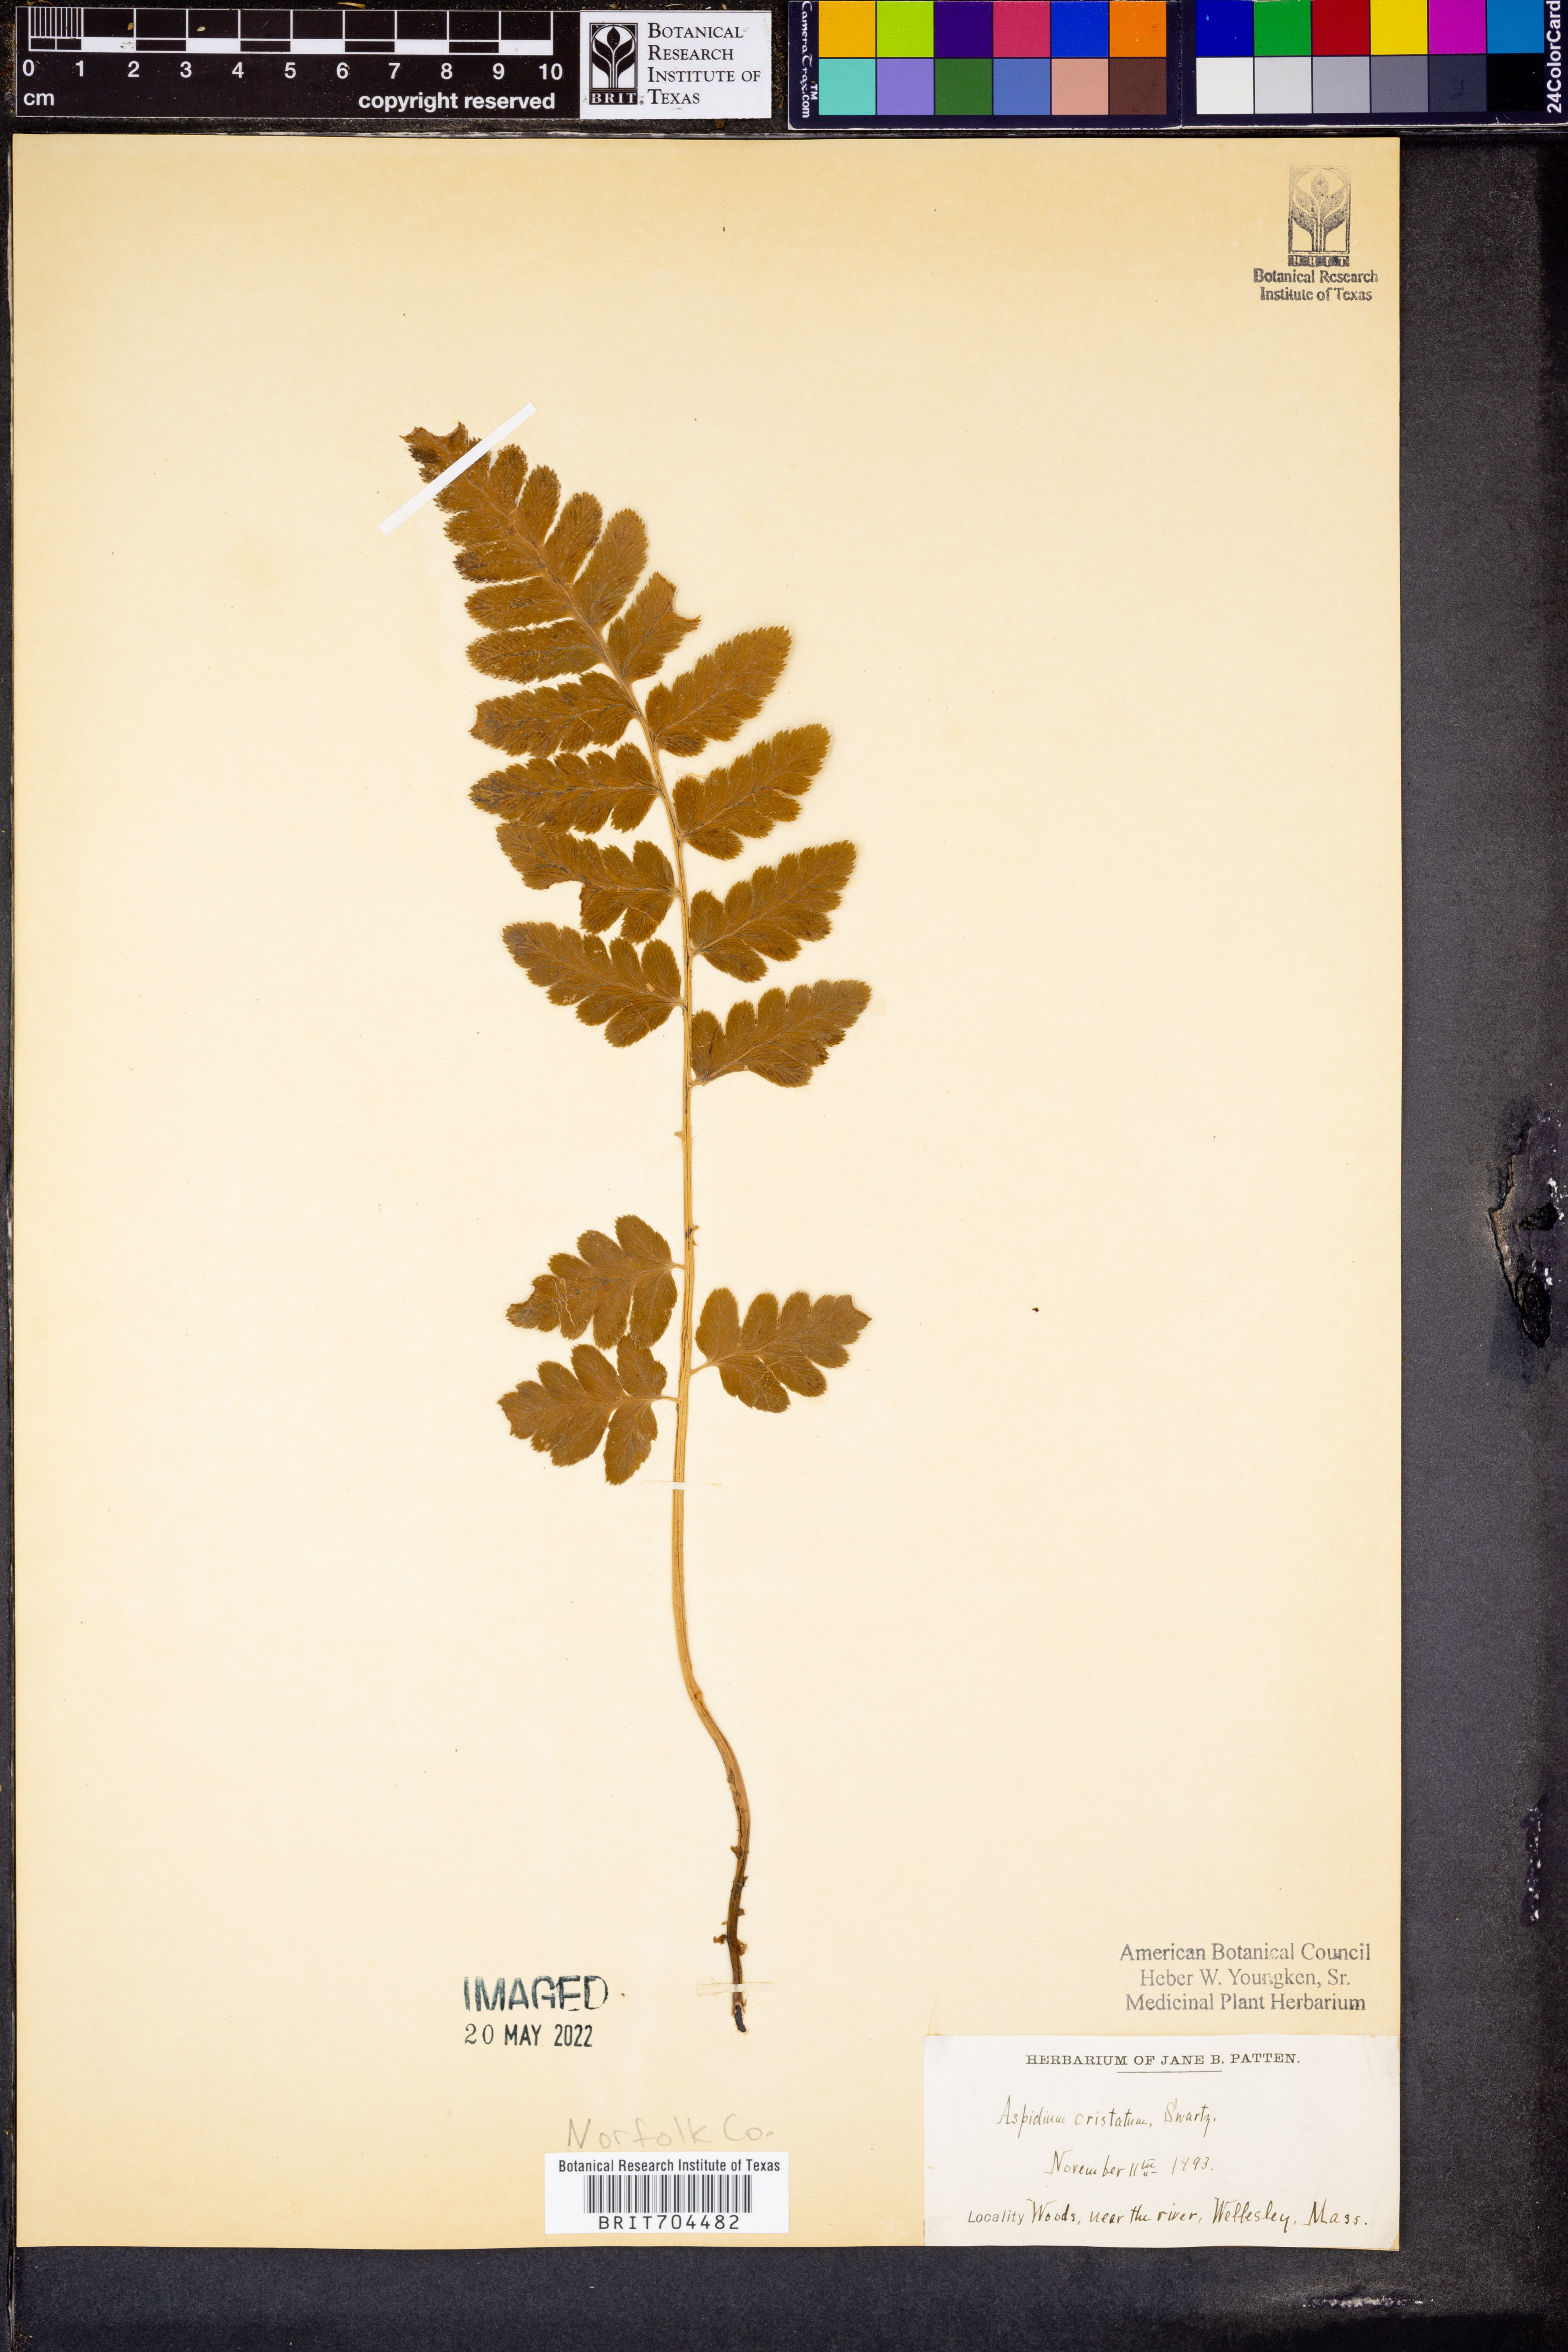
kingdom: Plantae
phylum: Tracheophyta
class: Polypodiopsida
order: Polypodiales
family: Dryopteridaceae
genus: Dryopteris
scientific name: Dryopteris cristata
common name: Crested wood fern
